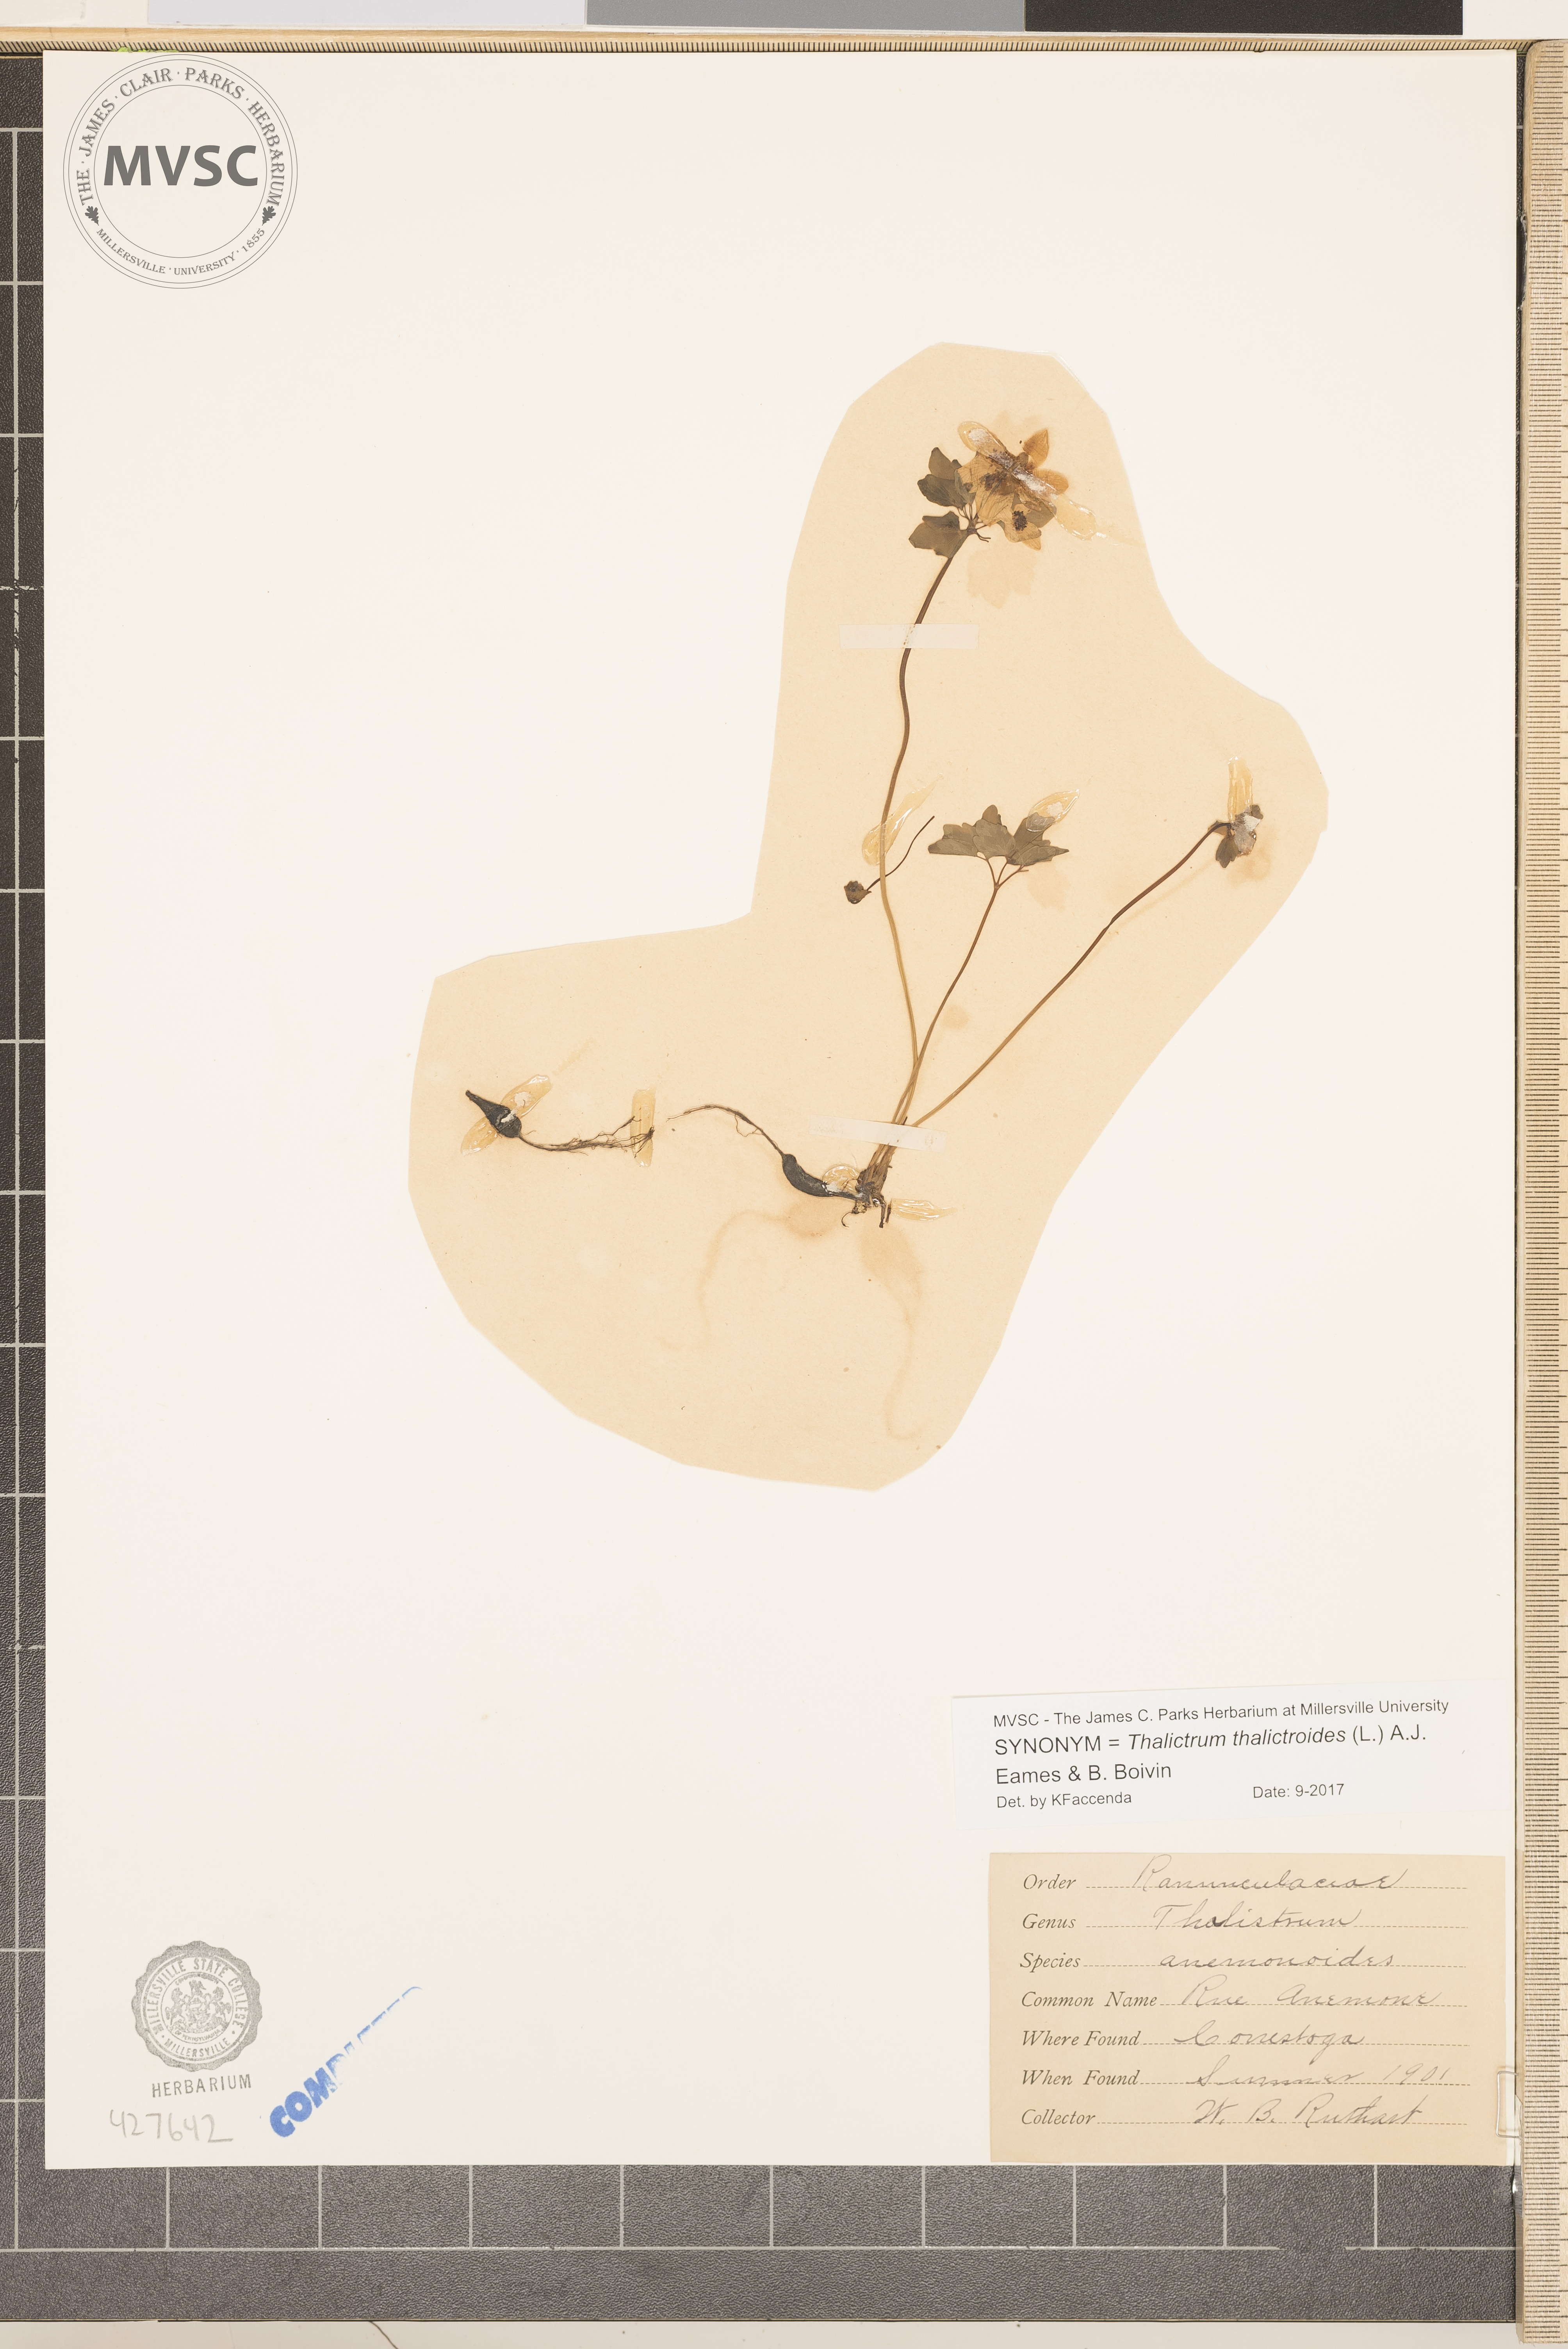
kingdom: Plantae
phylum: Tracheophyta
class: Magnoliopsida
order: Ranunculales
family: Ranunculaceae
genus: Thalictrum
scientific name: Thalictrum thalictroides
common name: Rue anemone
